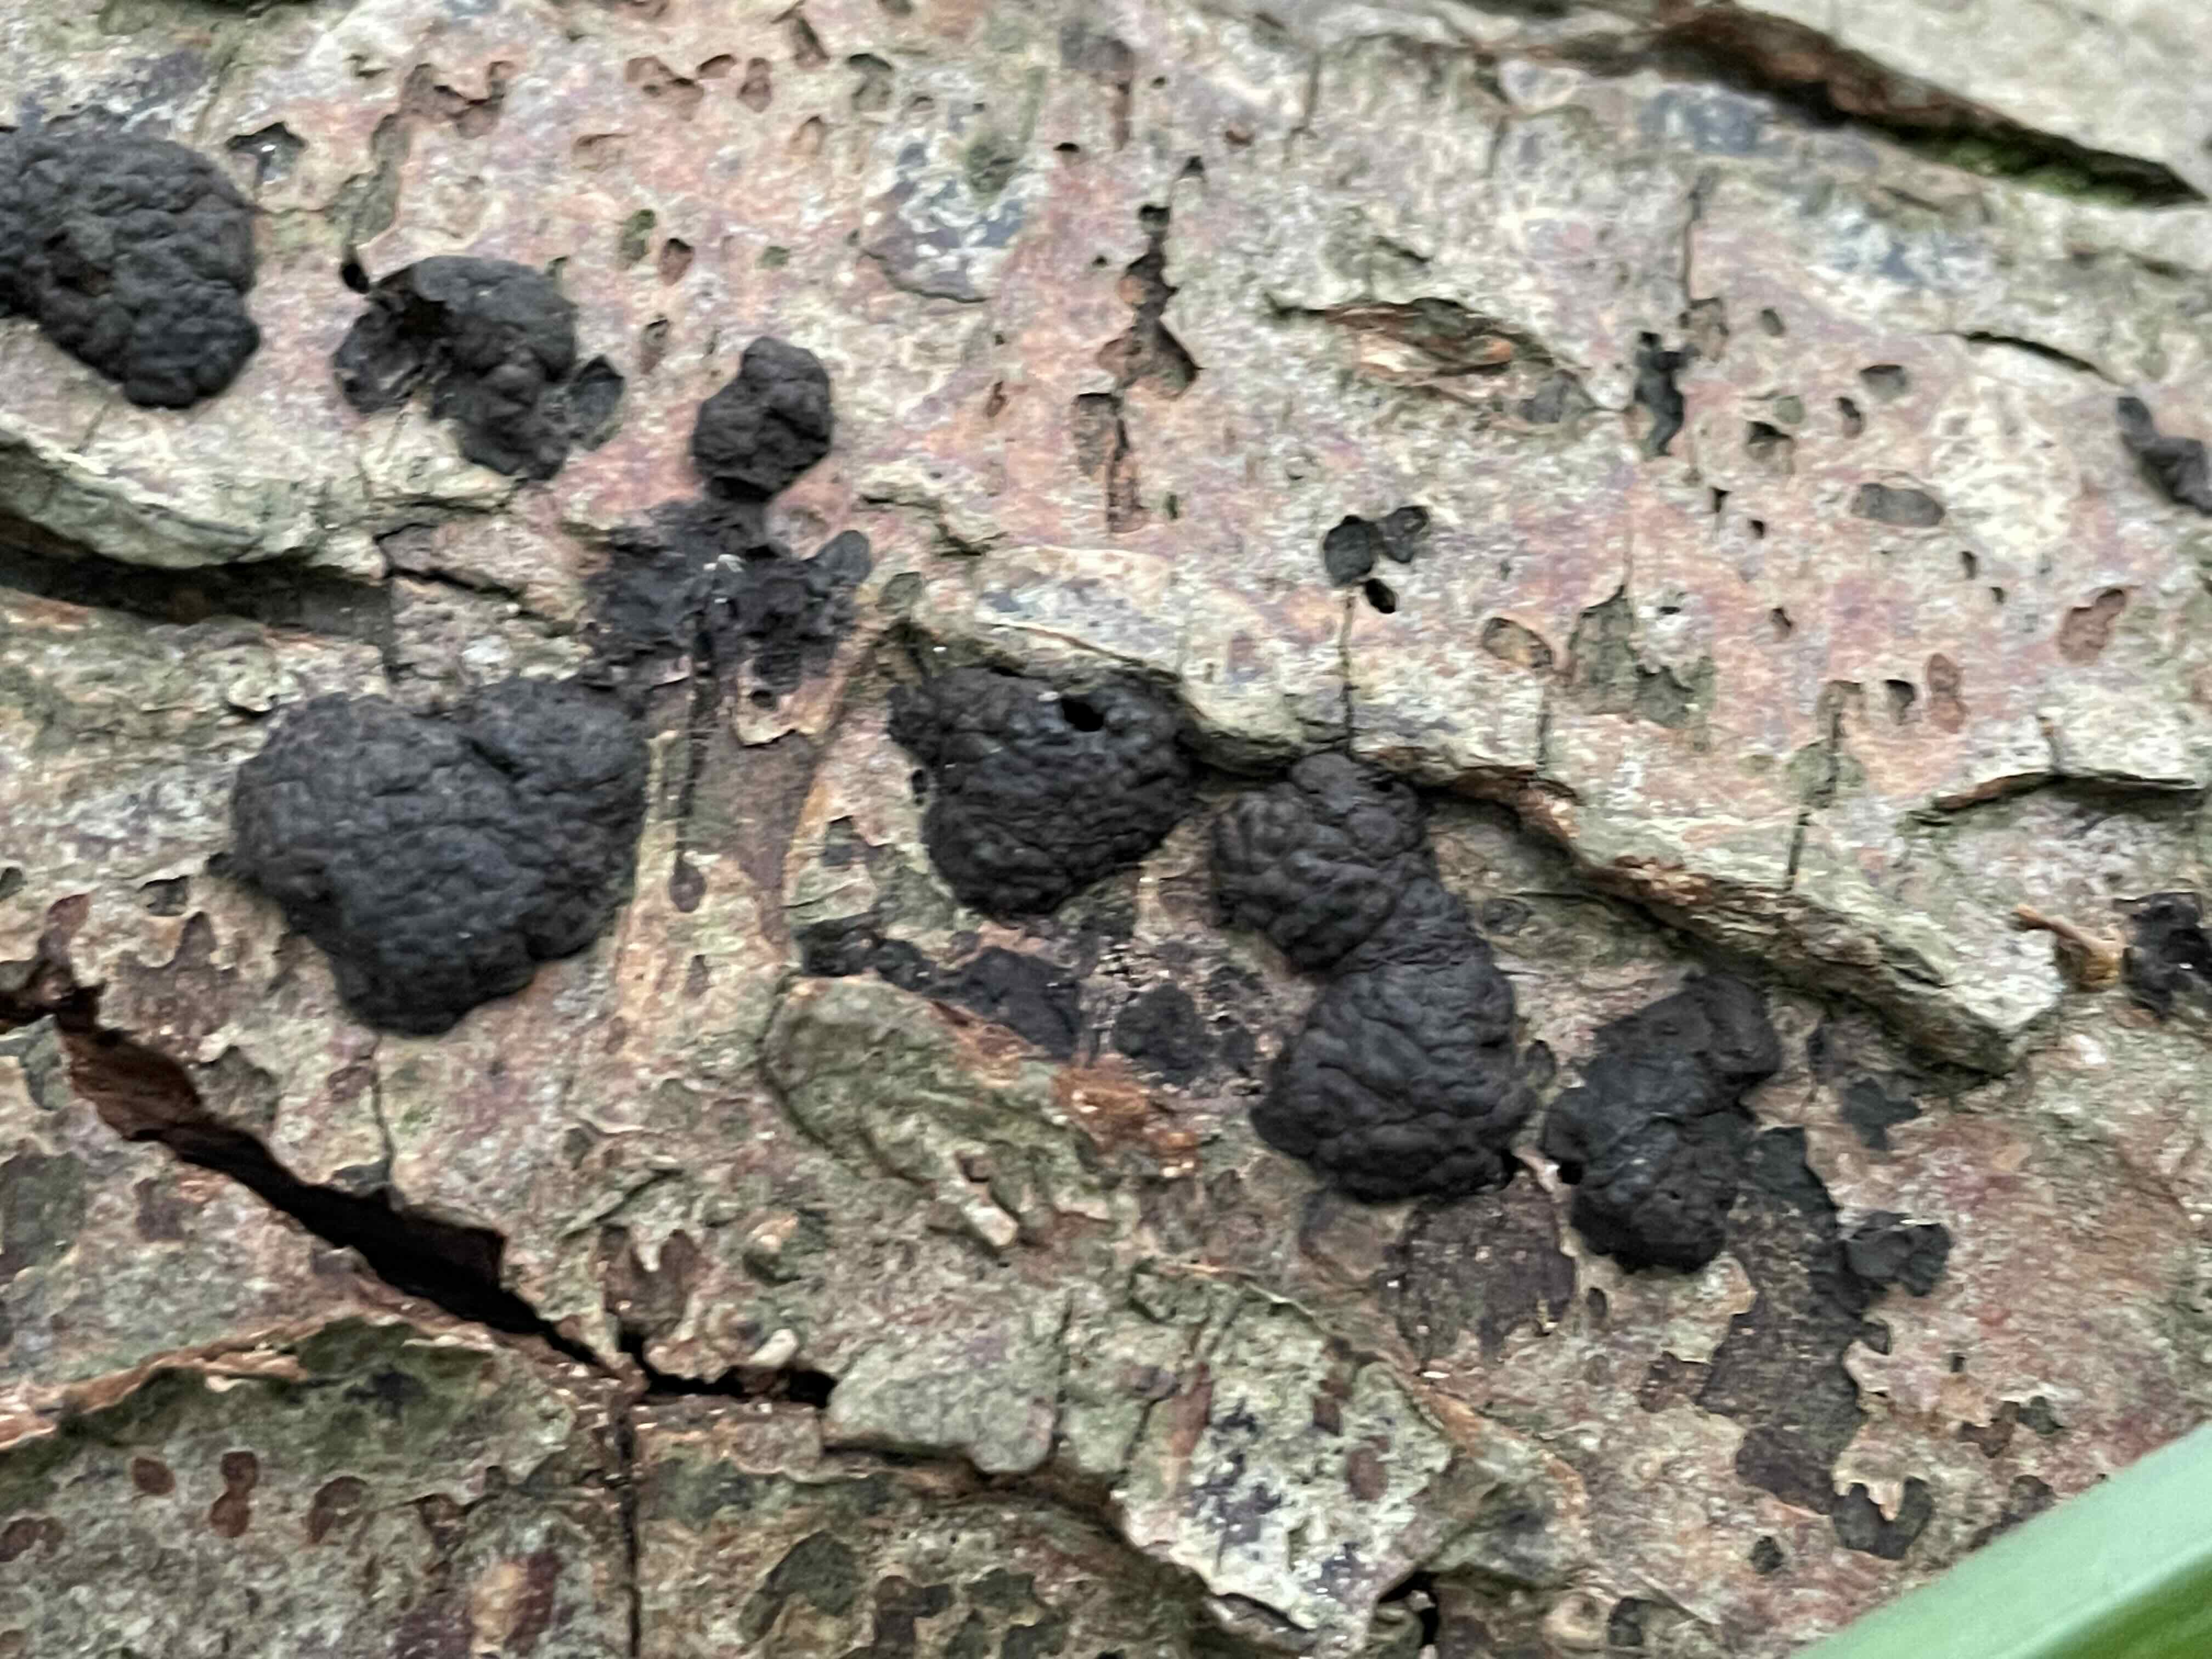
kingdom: Fungi
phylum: Ascomycota
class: Sordariomycetes
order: Xylariales
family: Hypoxylaceae
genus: Jackrogersella
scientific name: Jackrogersella multiformis
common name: foranderlig kulbær
